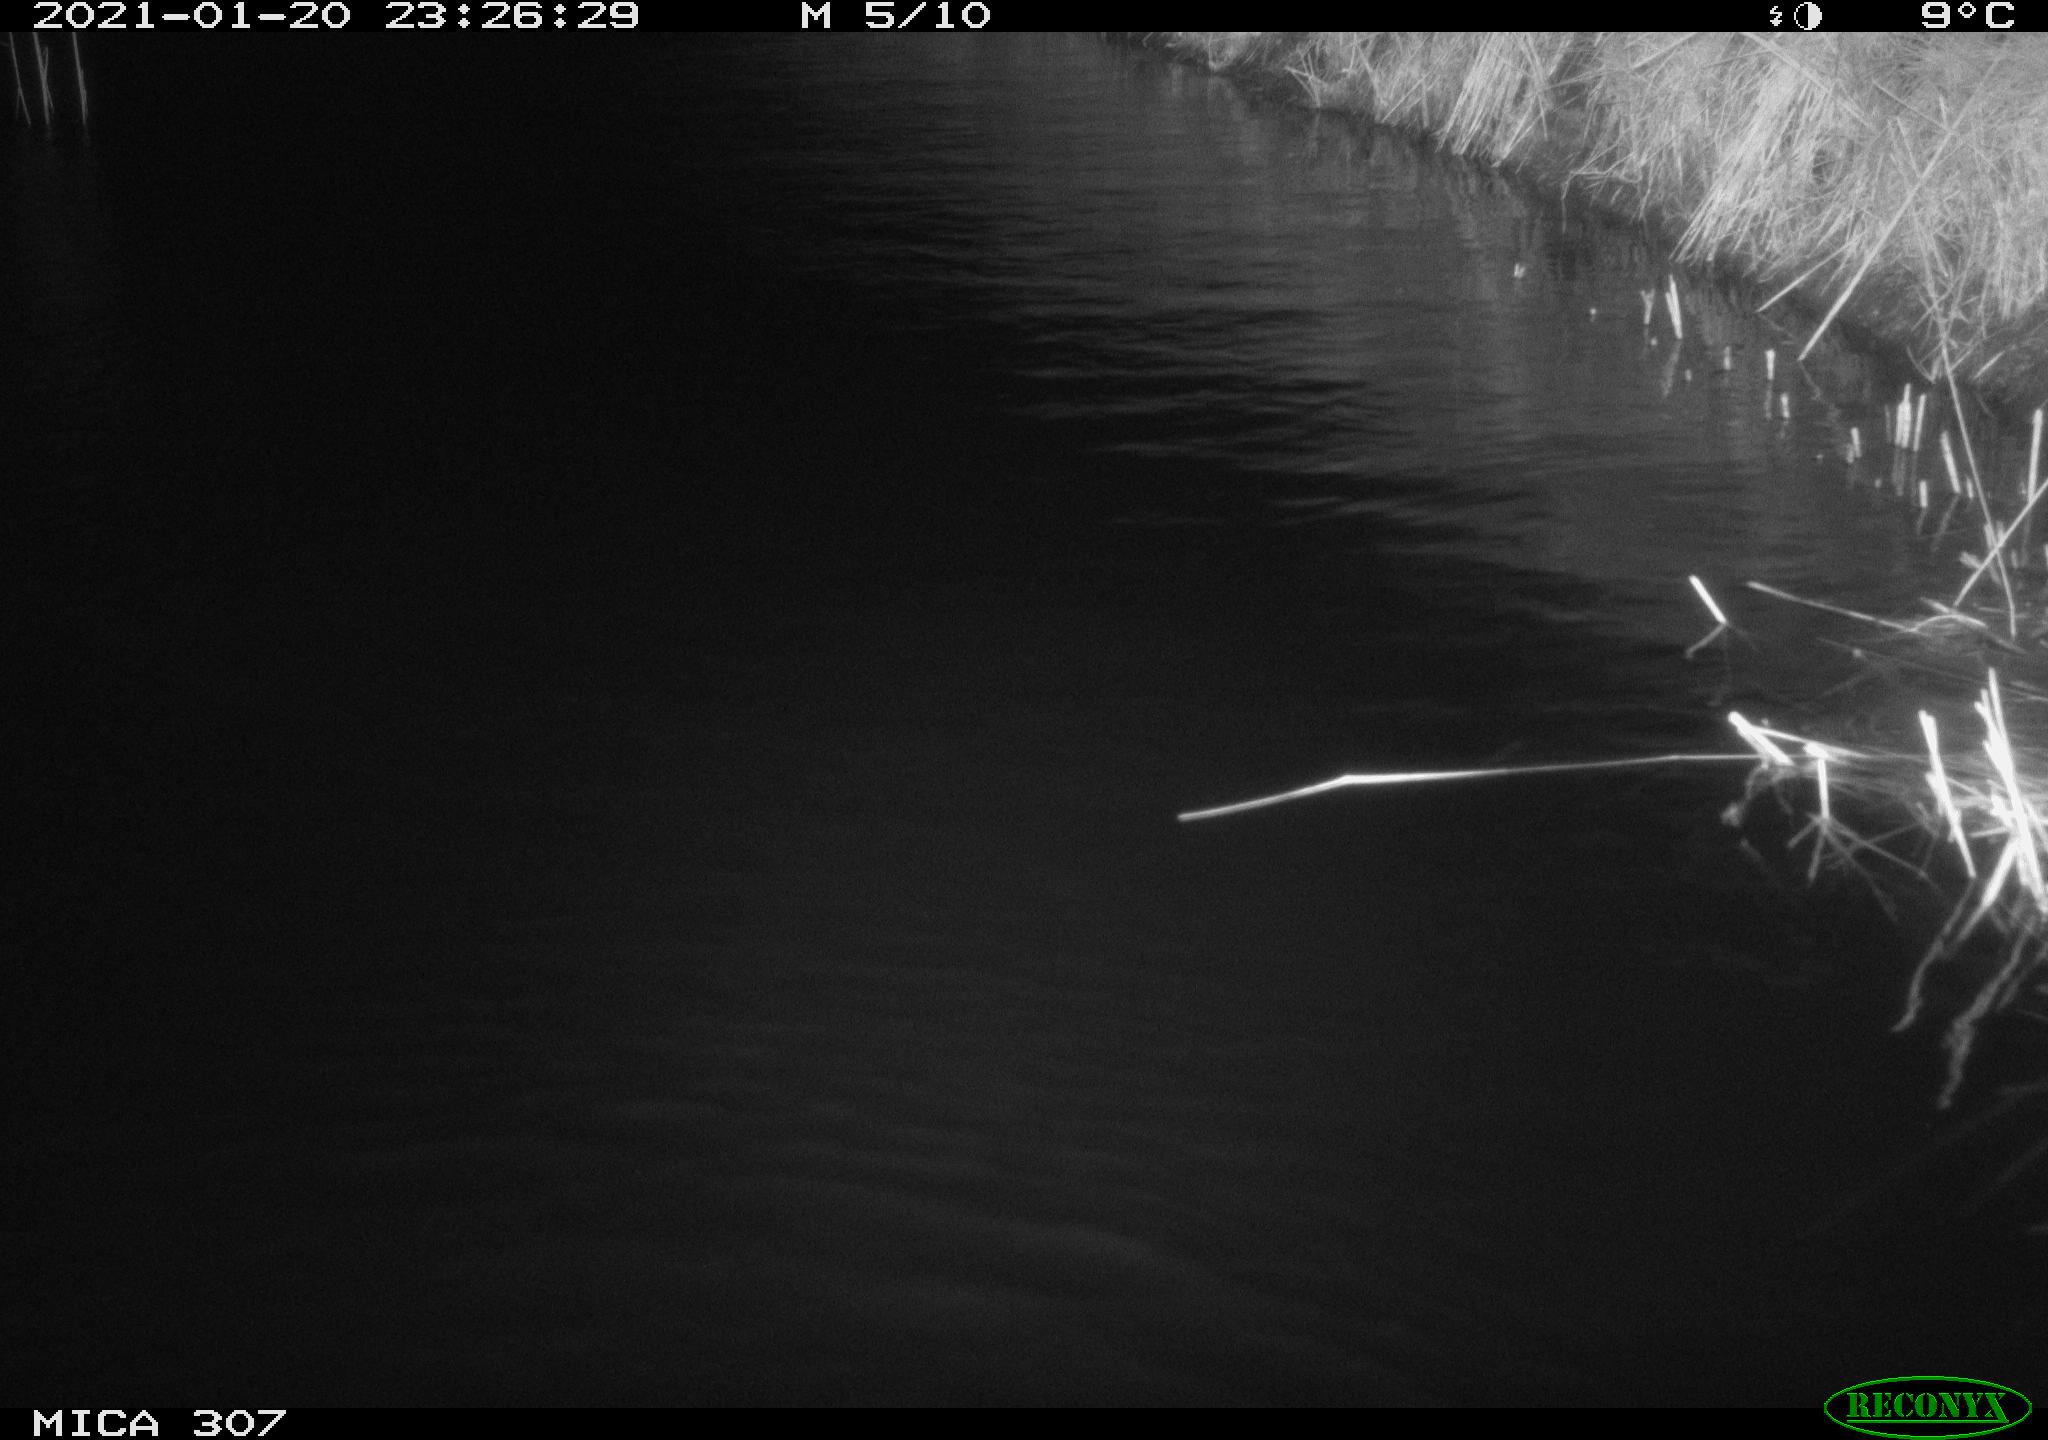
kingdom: Animalia
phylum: Chordata
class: Mammalia
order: Rodentia
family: Muridae
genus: Rattus
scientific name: Rattus norvegicus
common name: Brown rat
